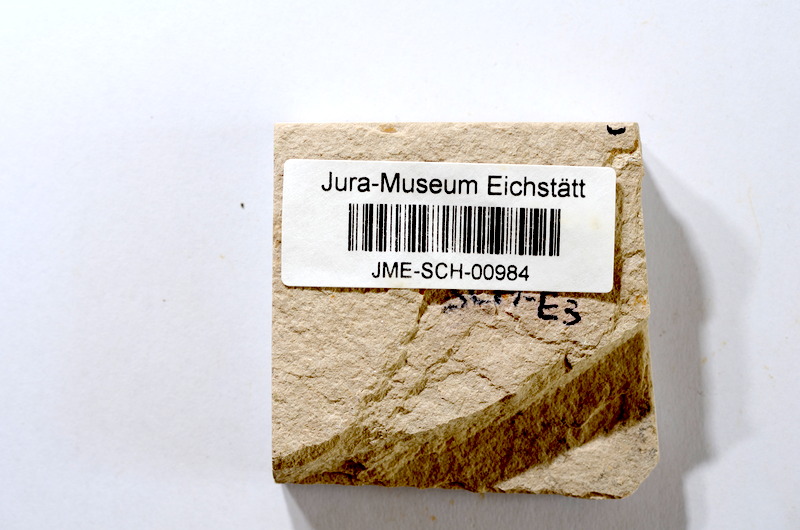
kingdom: Animalia
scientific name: Animalia
